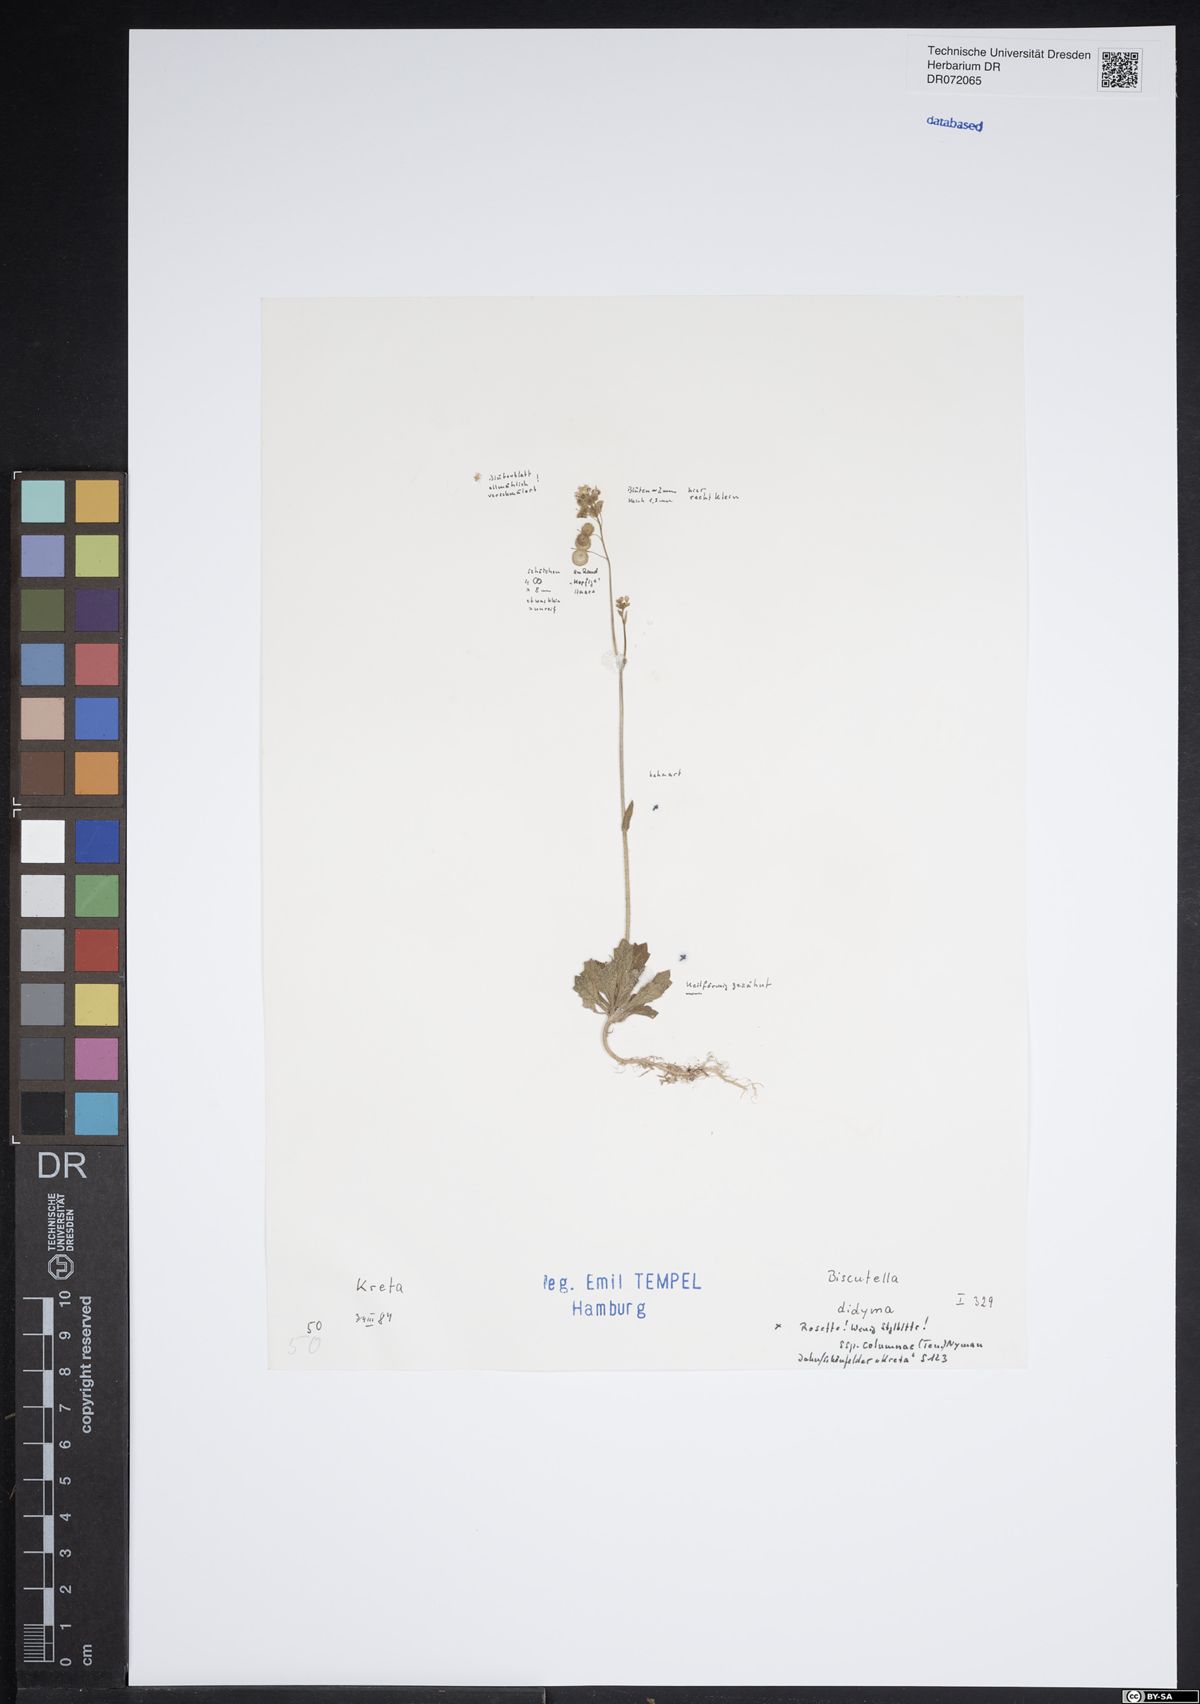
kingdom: Plantae
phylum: Tracheophyta
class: Magnoliopsida
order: Brassicales
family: Brassicaceae
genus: Biscutella
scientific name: Biscutella didyma
